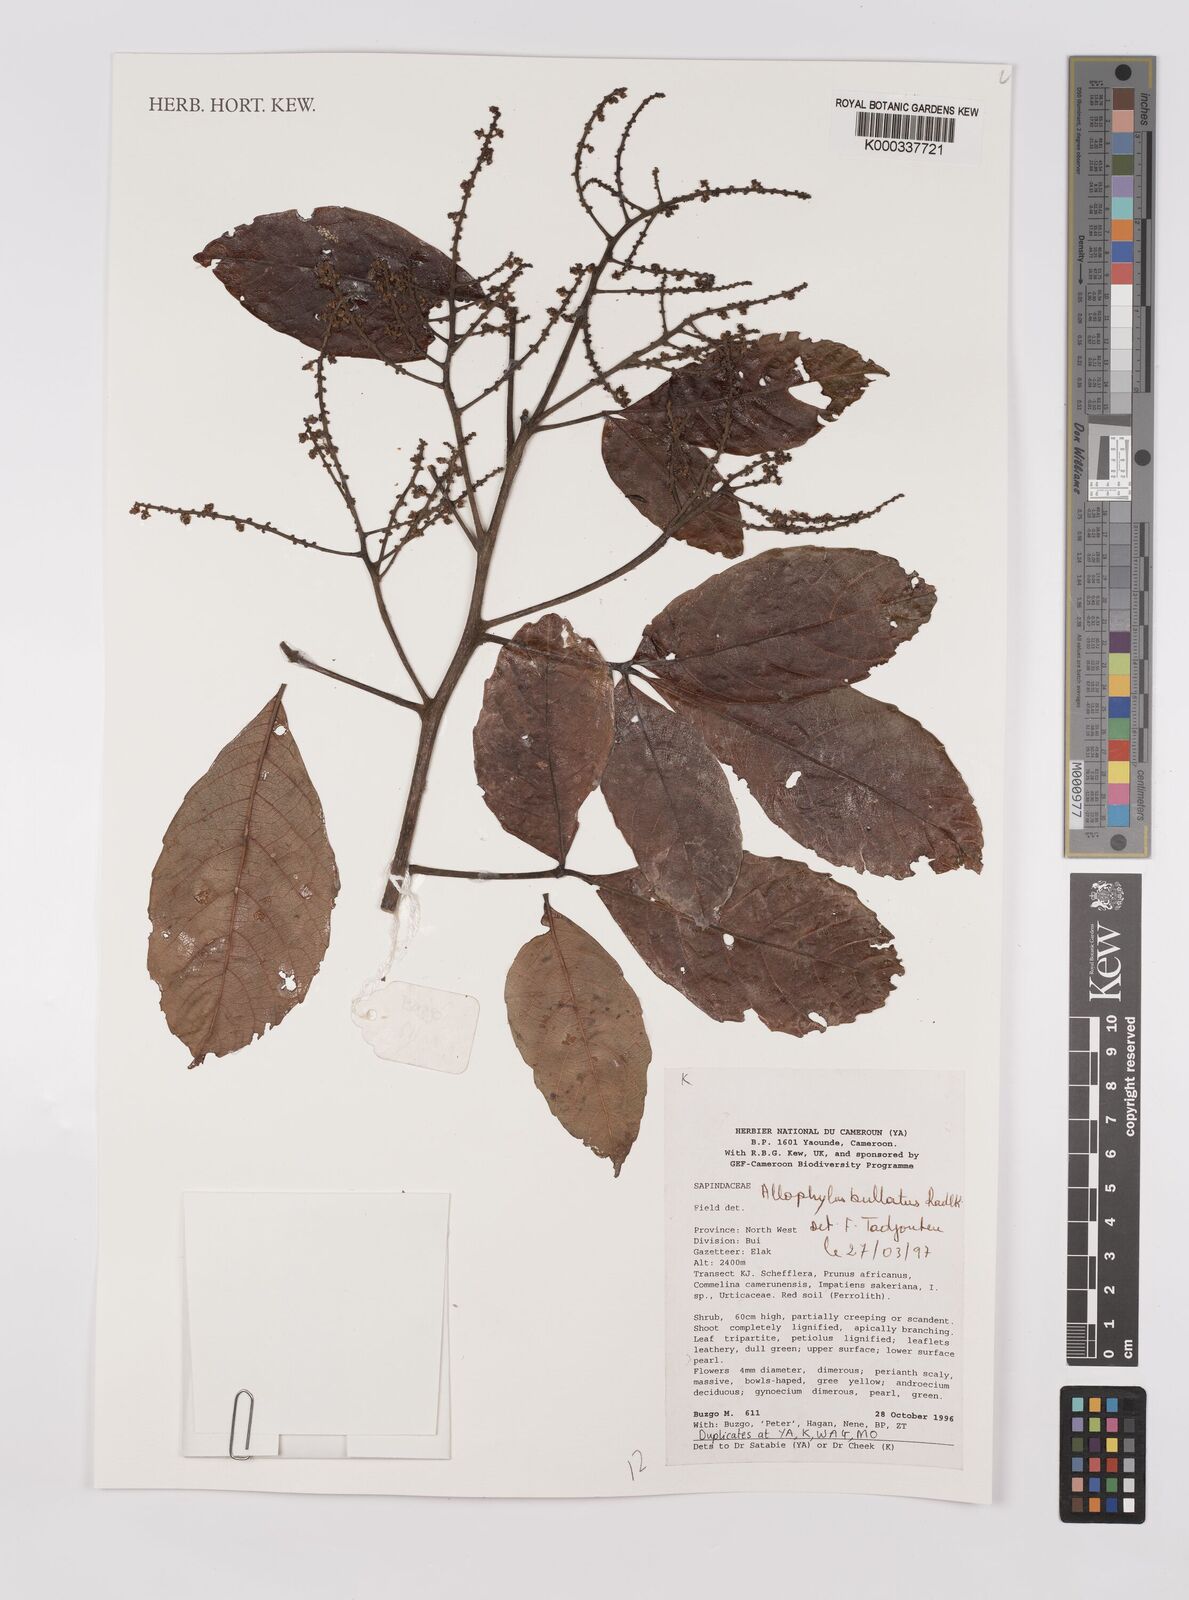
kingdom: Plantae
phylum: Tracheophyta
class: Magnoliopsida
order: Sapindales
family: Sapindaceae
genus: Allophylus
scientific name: Allophylus bullatus
